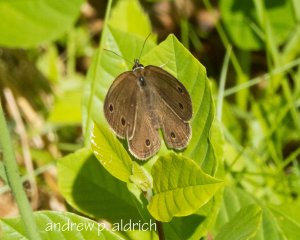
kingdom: Animalia
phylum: Arthropoda
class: Insecta
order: Lepidoptera
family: Nymphalidae
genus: Euptychia
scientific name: Euptychia cymela
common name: Little Wood Satyr
